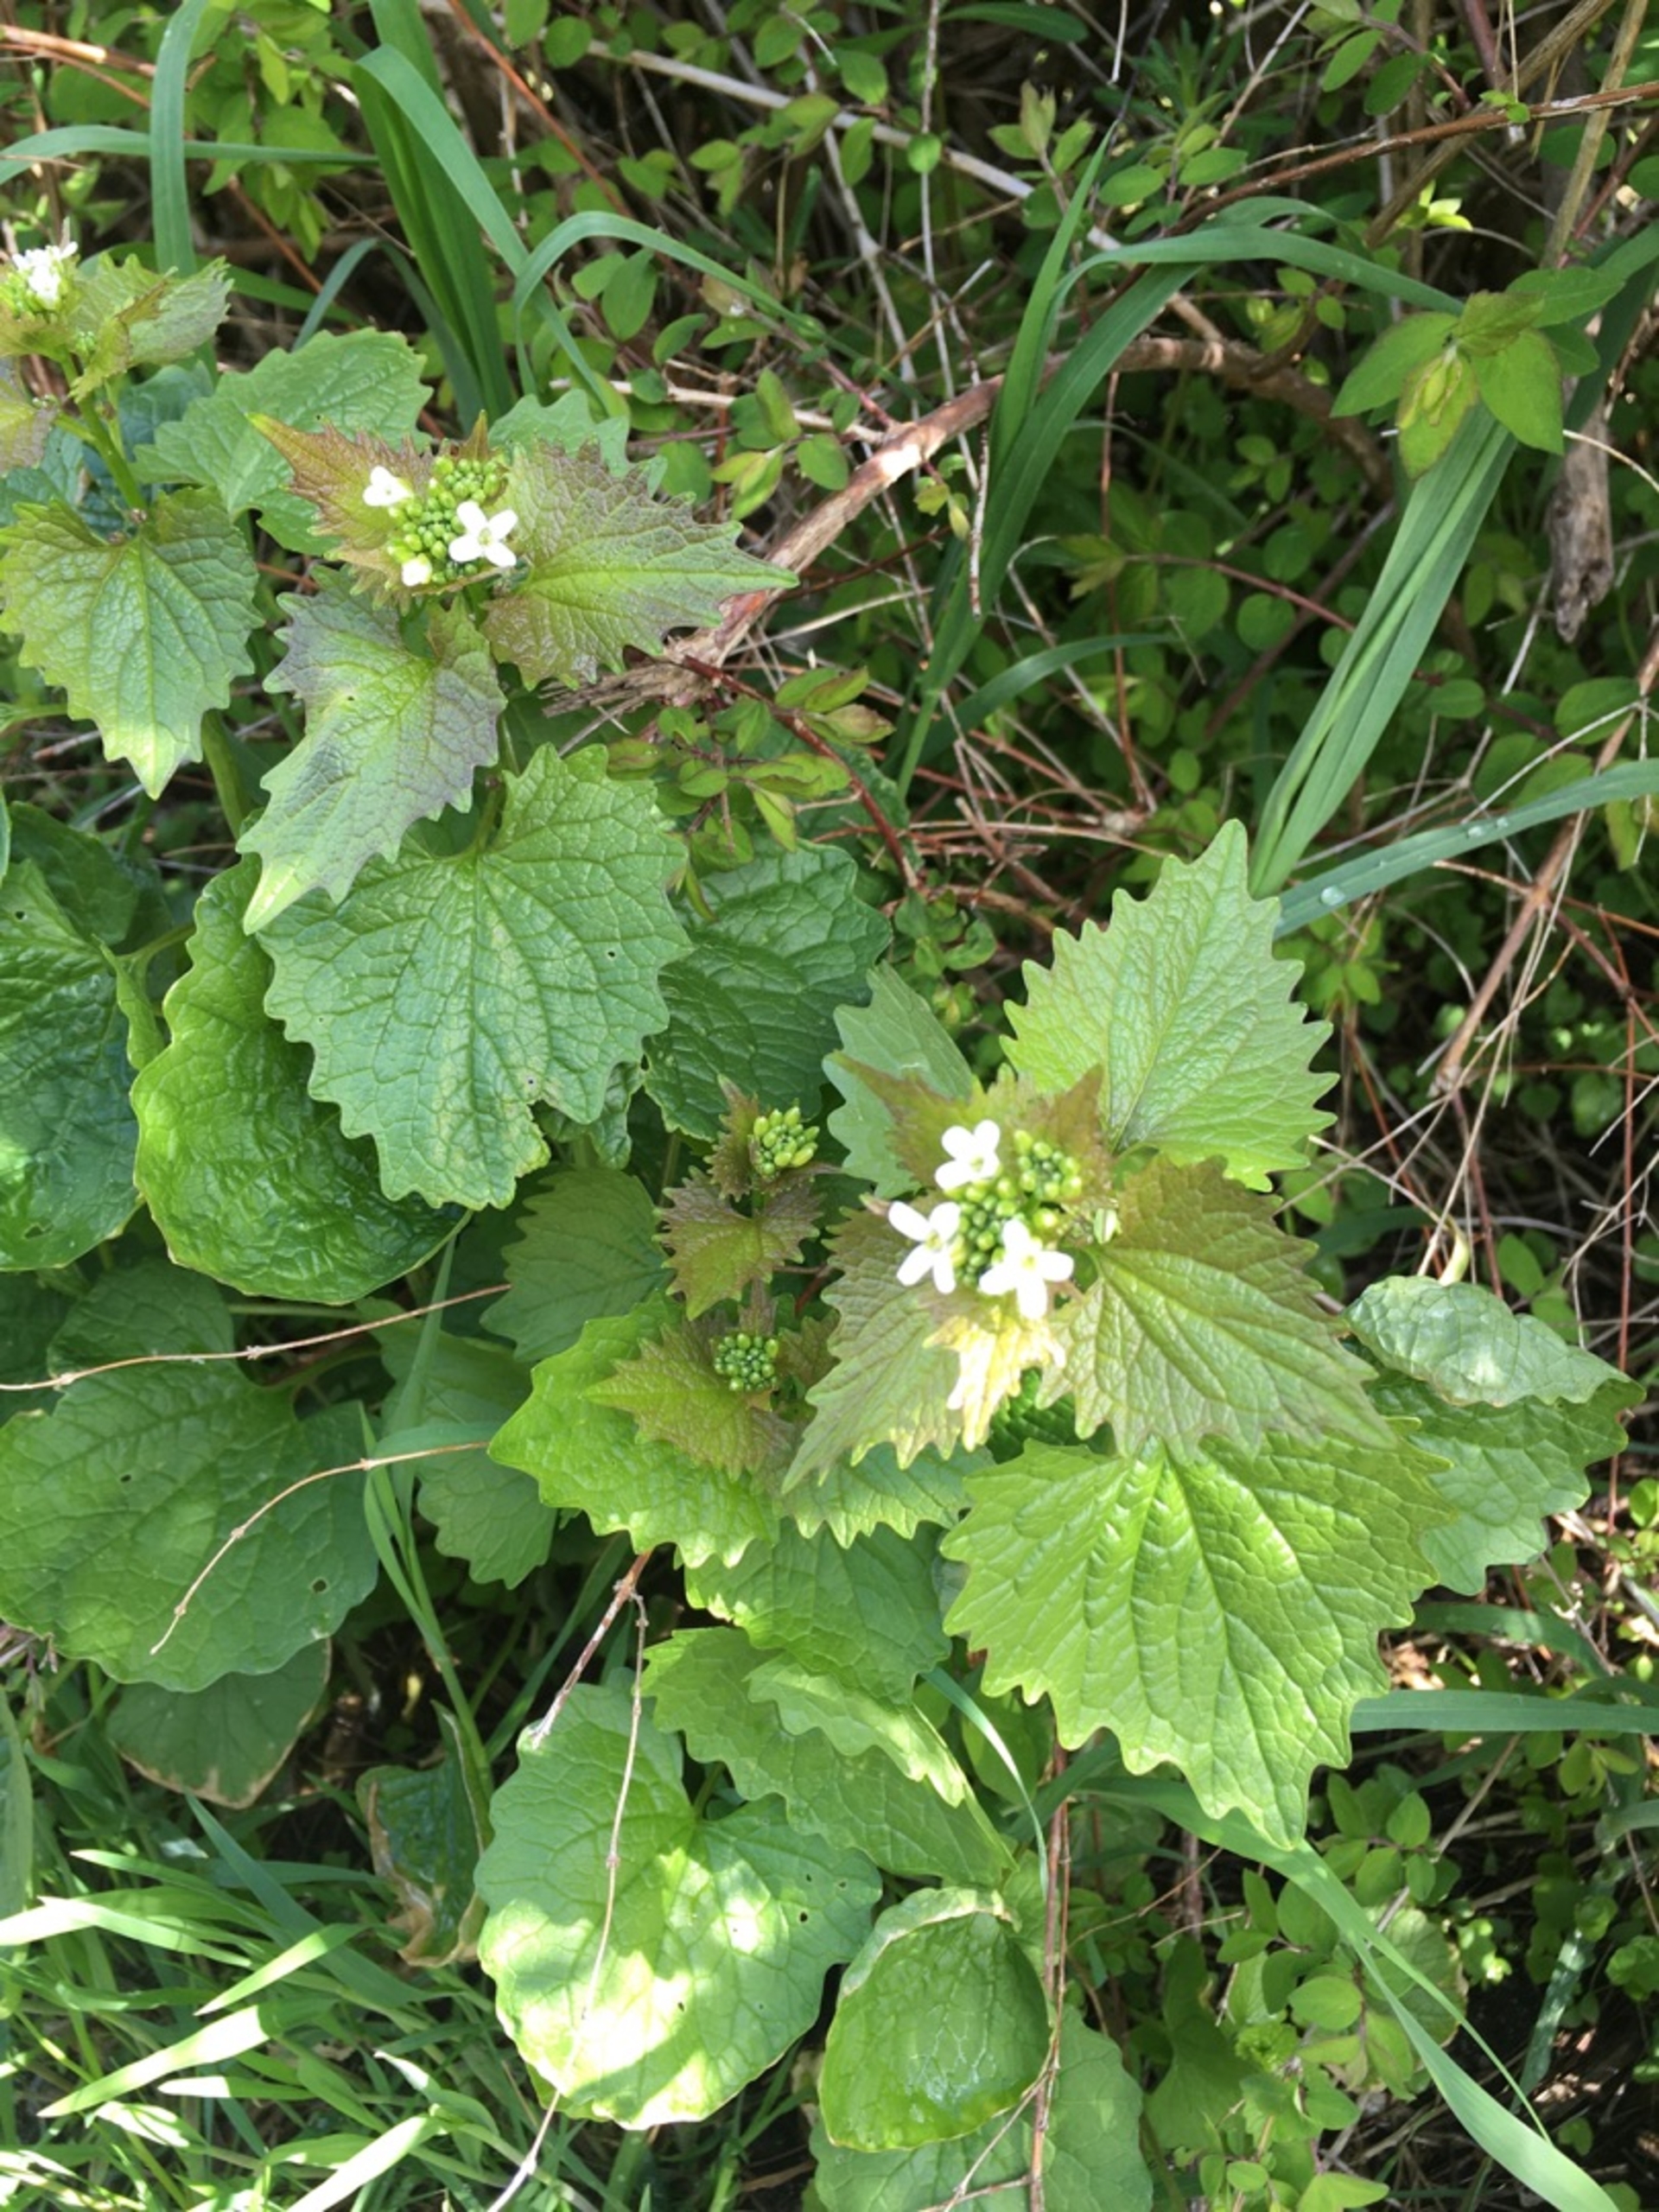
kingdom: Plantae
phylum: Tracheophyta
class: Magnoliopsida
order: Brassicales
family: Brassicaceae
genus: Alliaria
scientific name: Alliaria petiolata
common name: Løgkarse
